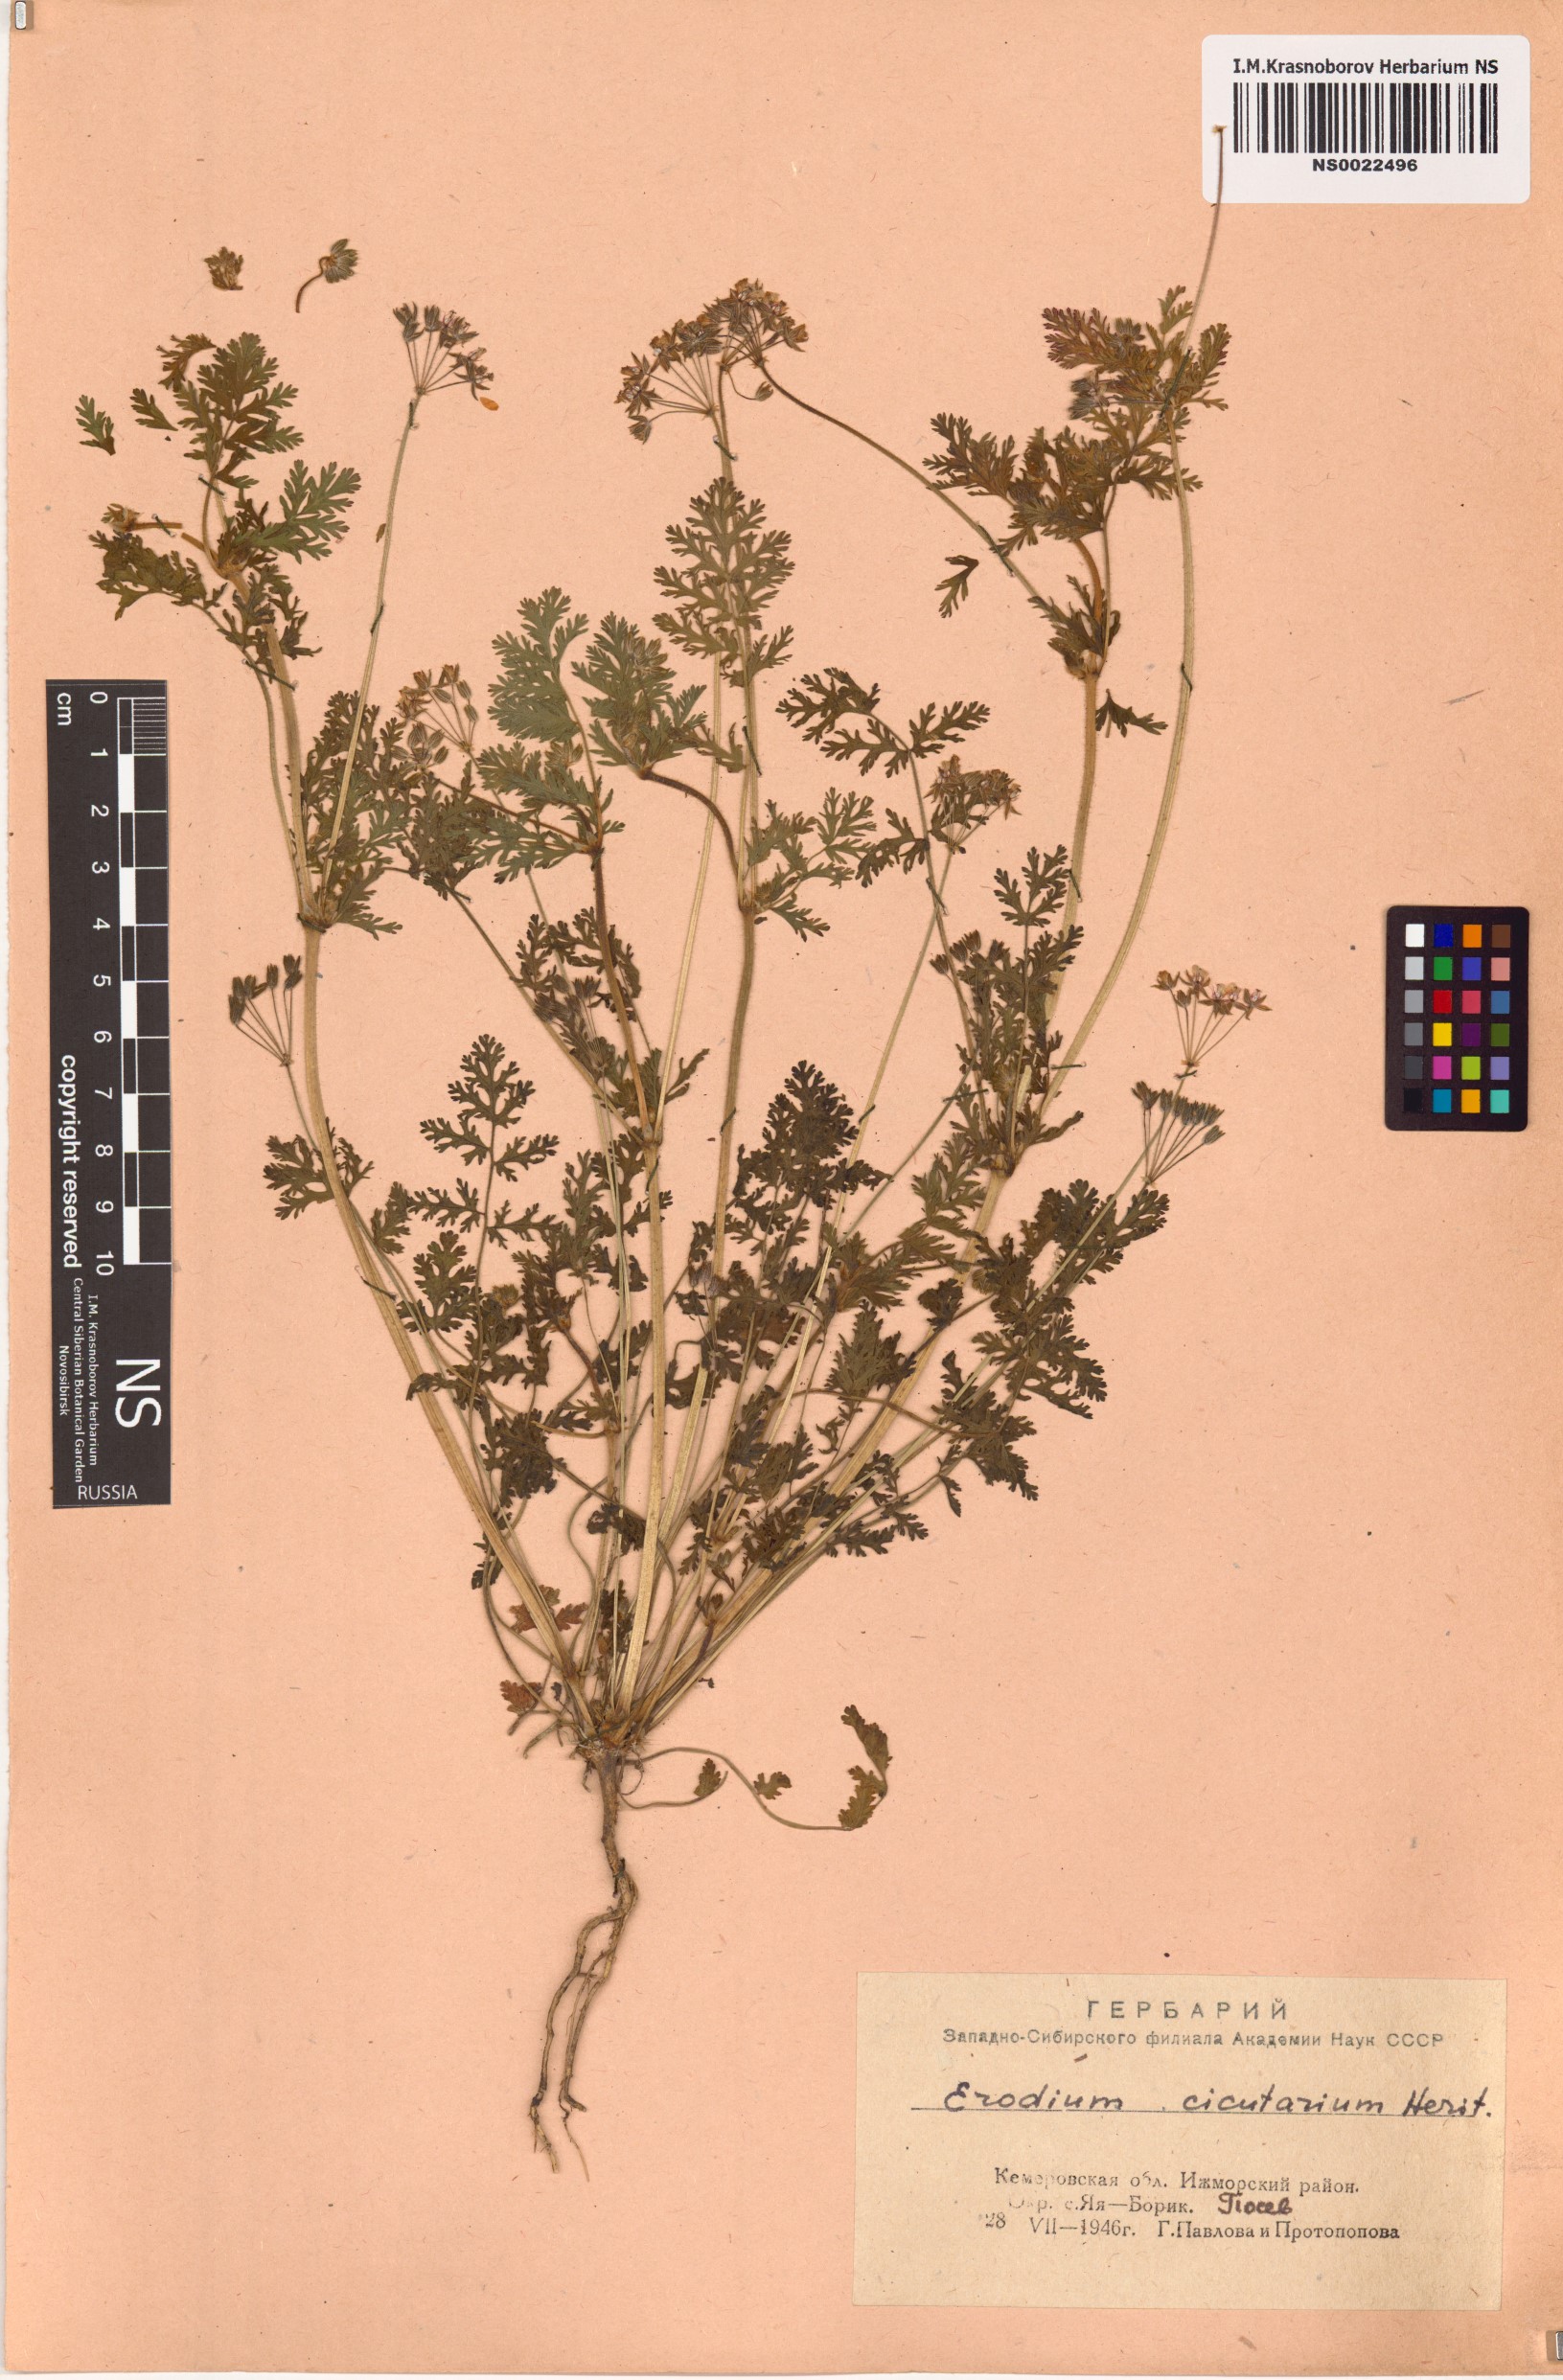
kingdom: Plantae
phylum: Tracheophyta
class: Magnoliopsida
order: Geraniales
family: Geraniaceae
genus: Erodium
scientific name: Erodium cicutarium
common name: Common stork's-bill
